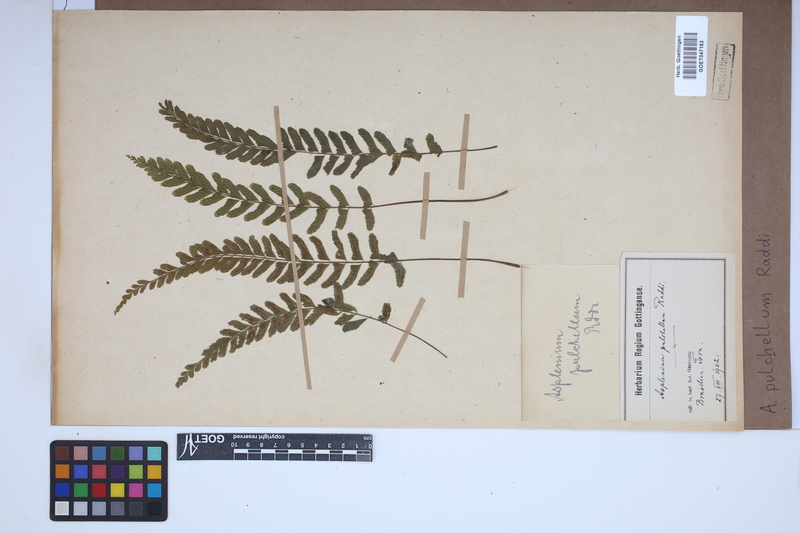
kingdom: Plantae
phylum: Tracheophyta
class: Polypodiopsida
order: Polypodiales
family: Aspleniaceae
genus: Asplenium
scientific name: Asplenium pulchellum
